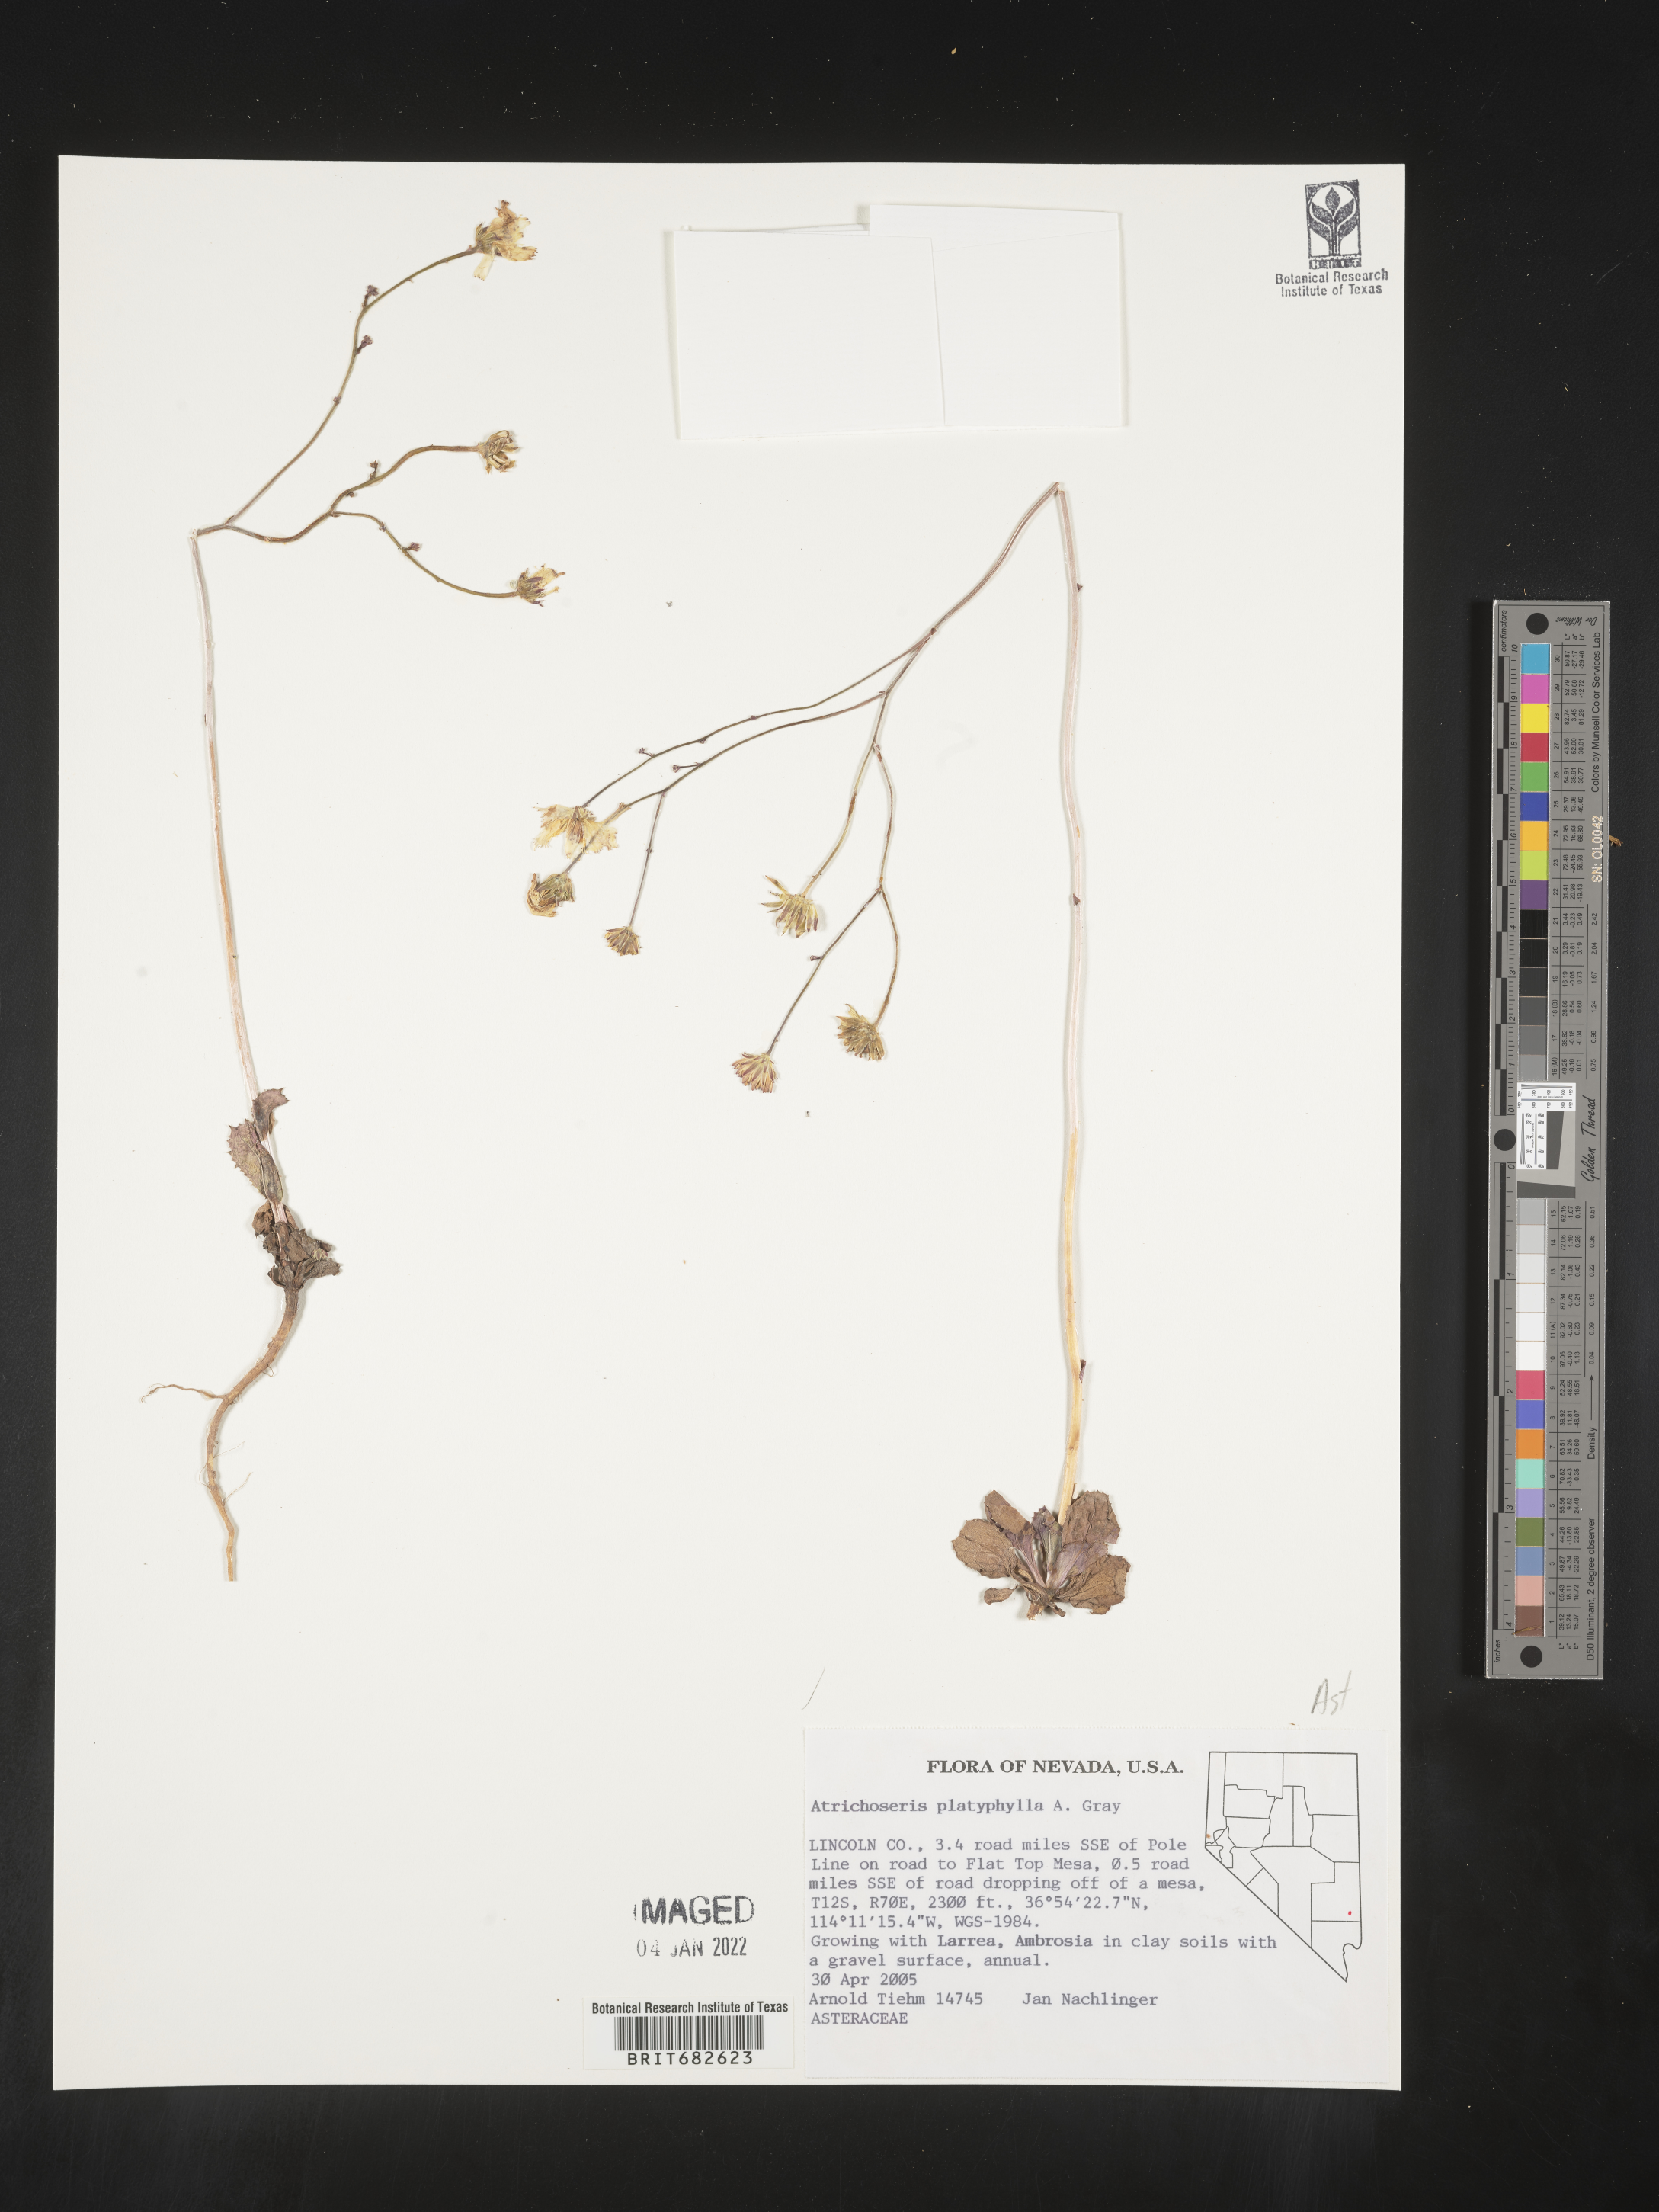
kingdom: Plantae
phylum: Tracheophyta
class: Magnoliopsida
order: Asterales
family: Asteraceae
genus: Atrichoseris
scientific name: Atrichoseris
